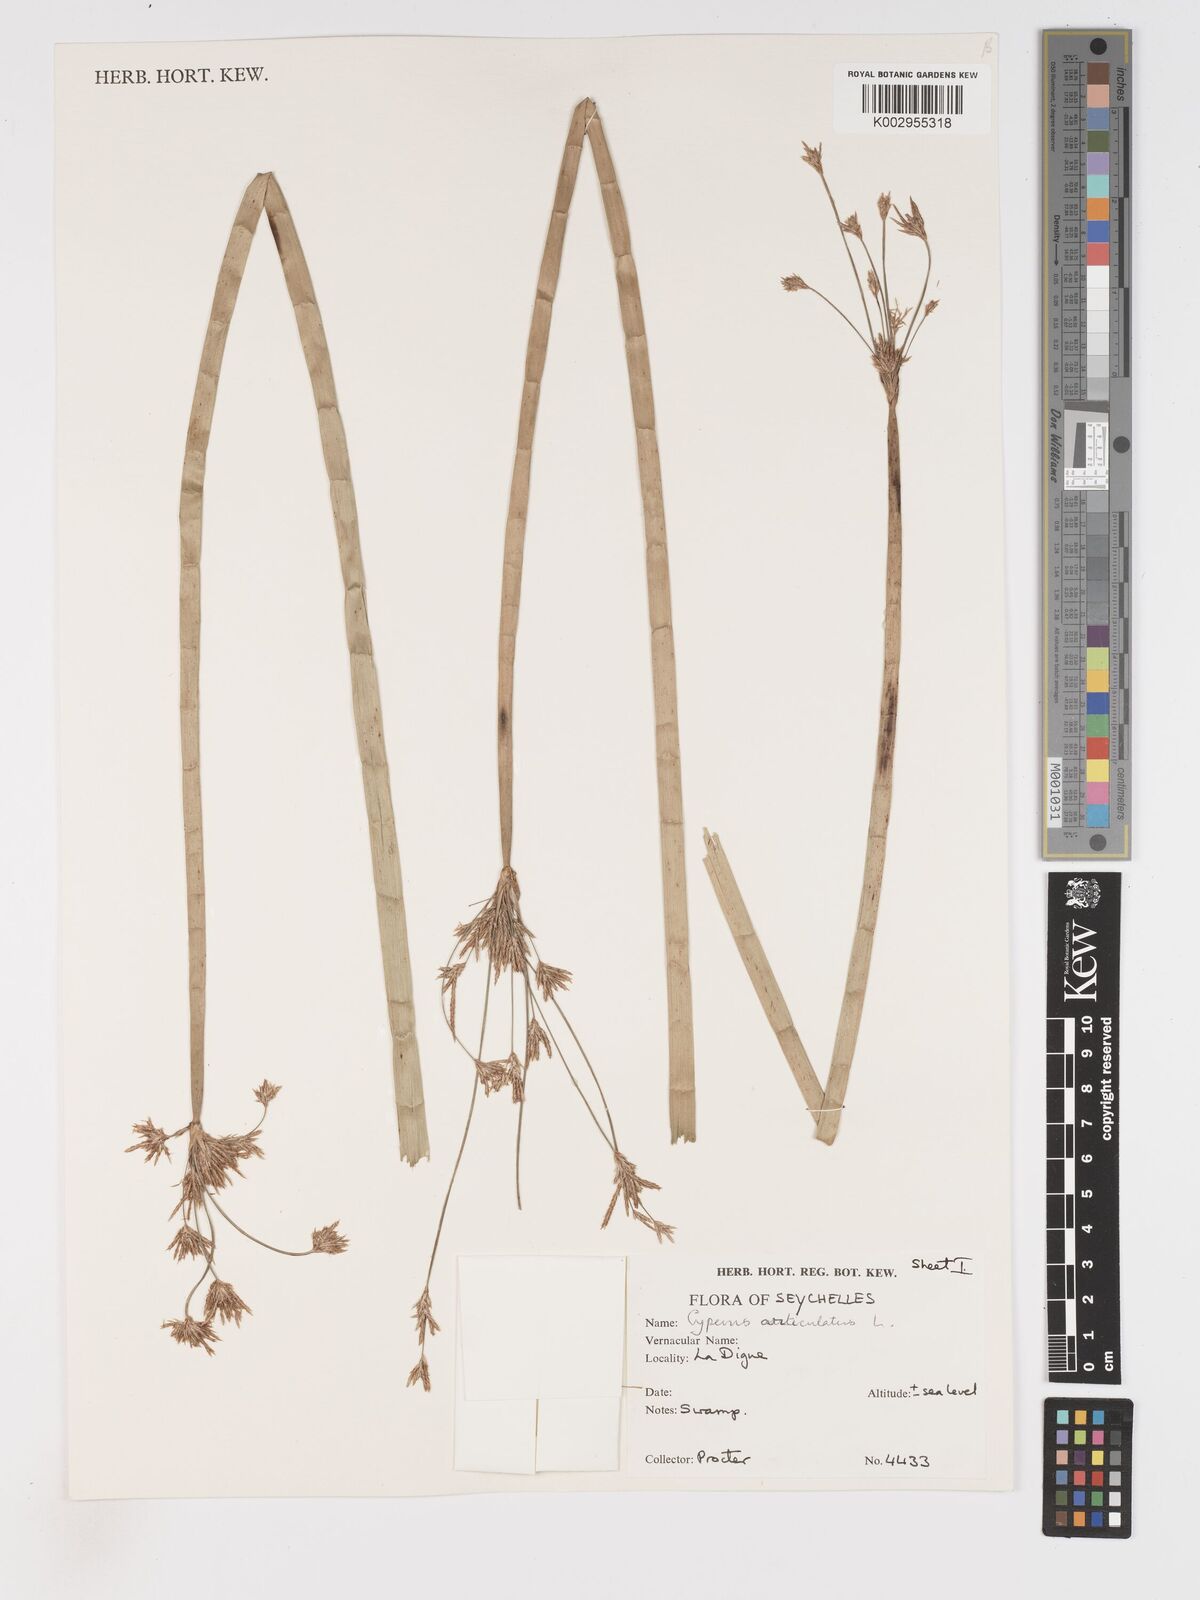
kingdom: Plantae
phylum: Tracheophyta
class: Liliopsida
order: Poales
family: Cyperaceae
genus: Cyperus
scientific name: Cyperus articulatus
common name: Jointed flatsedge
